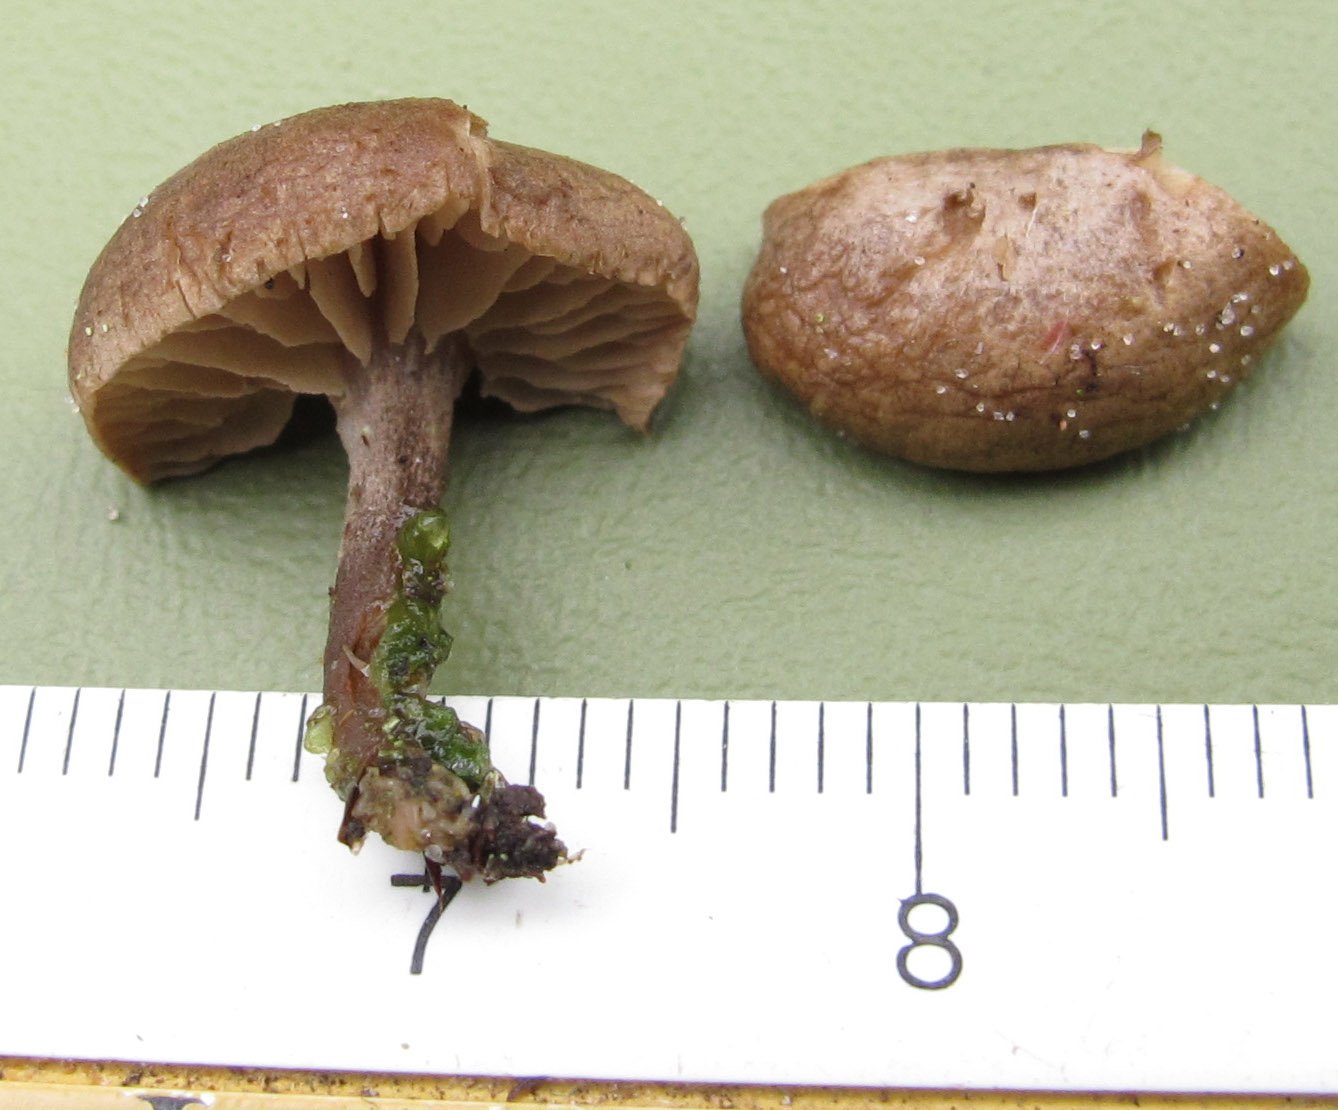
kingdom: Fungi
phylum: Basidiomycota
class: Agaricomycetes
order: Agaricales
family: Entolomataceae
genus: Clitopilus
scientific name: Clitopilus caelatus
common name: gråbrun troldhat
